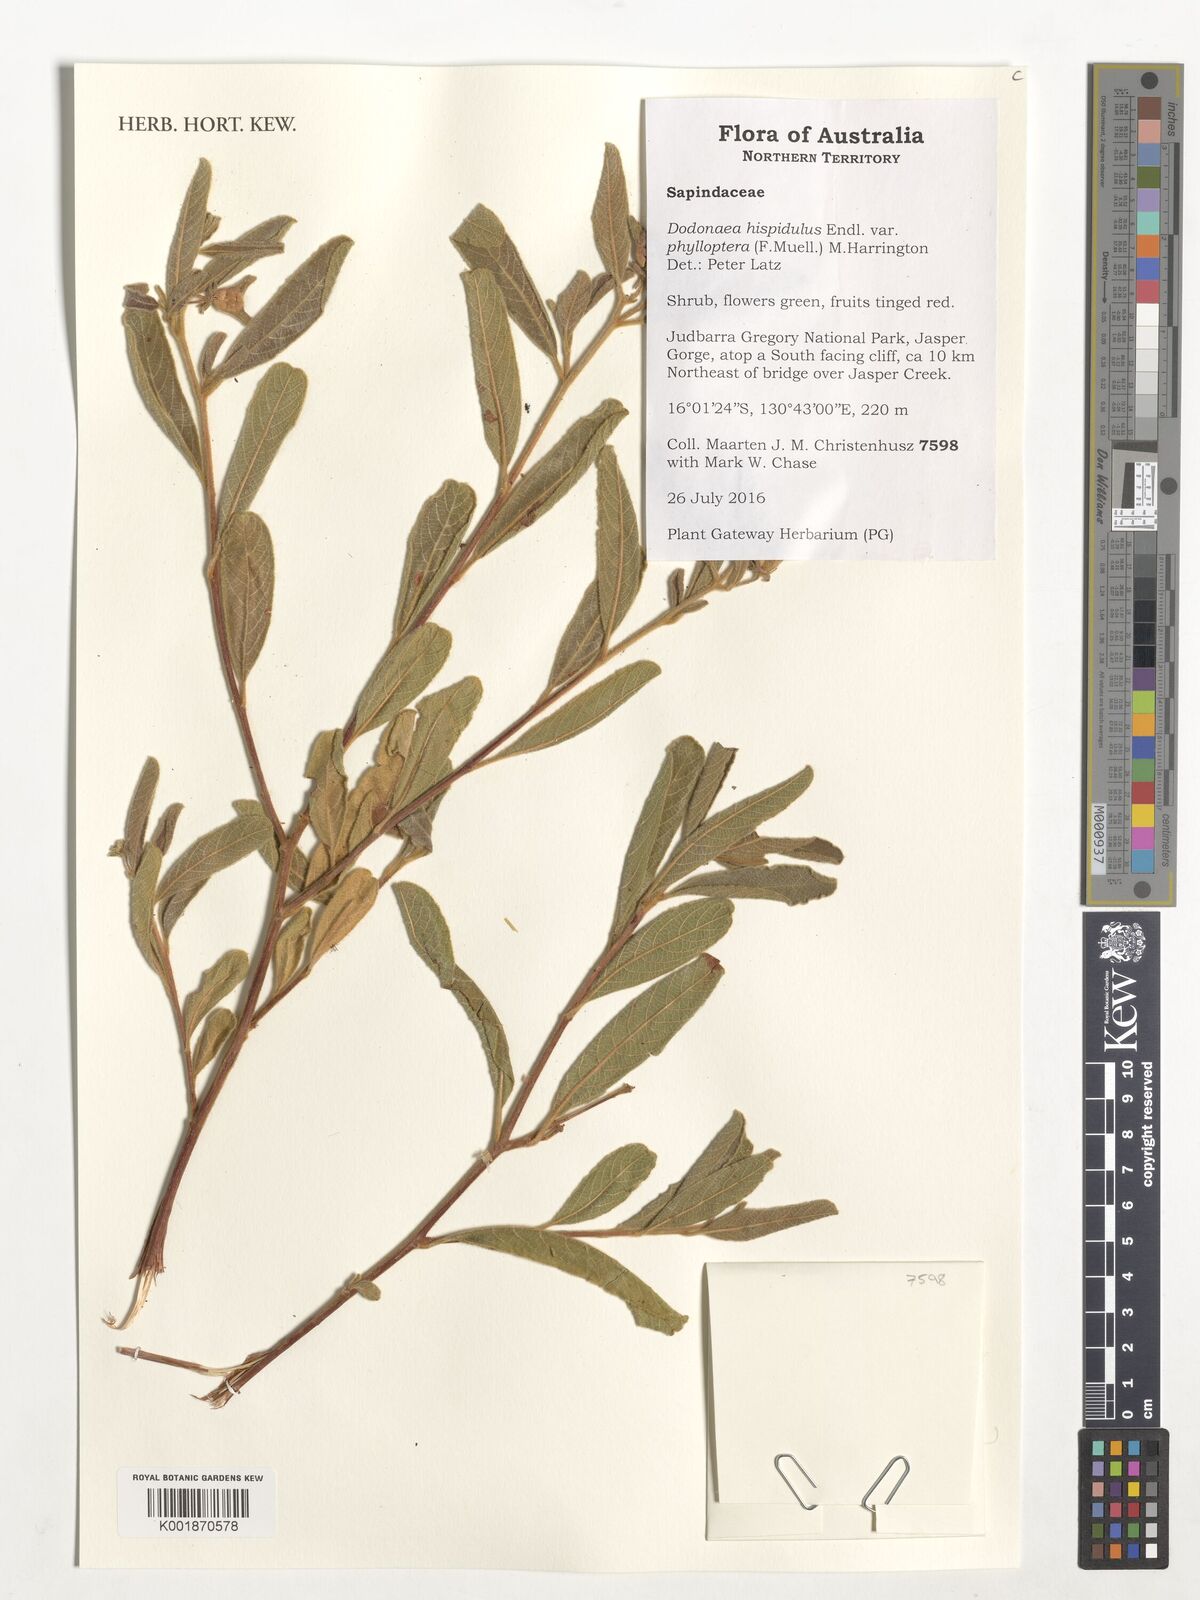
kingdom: Plantae
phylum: Tracheophyta
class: Magnoliopsida
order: Sapindales
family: Sapindaceae
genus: Dodonaea
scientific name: Dodonaea hispidula
